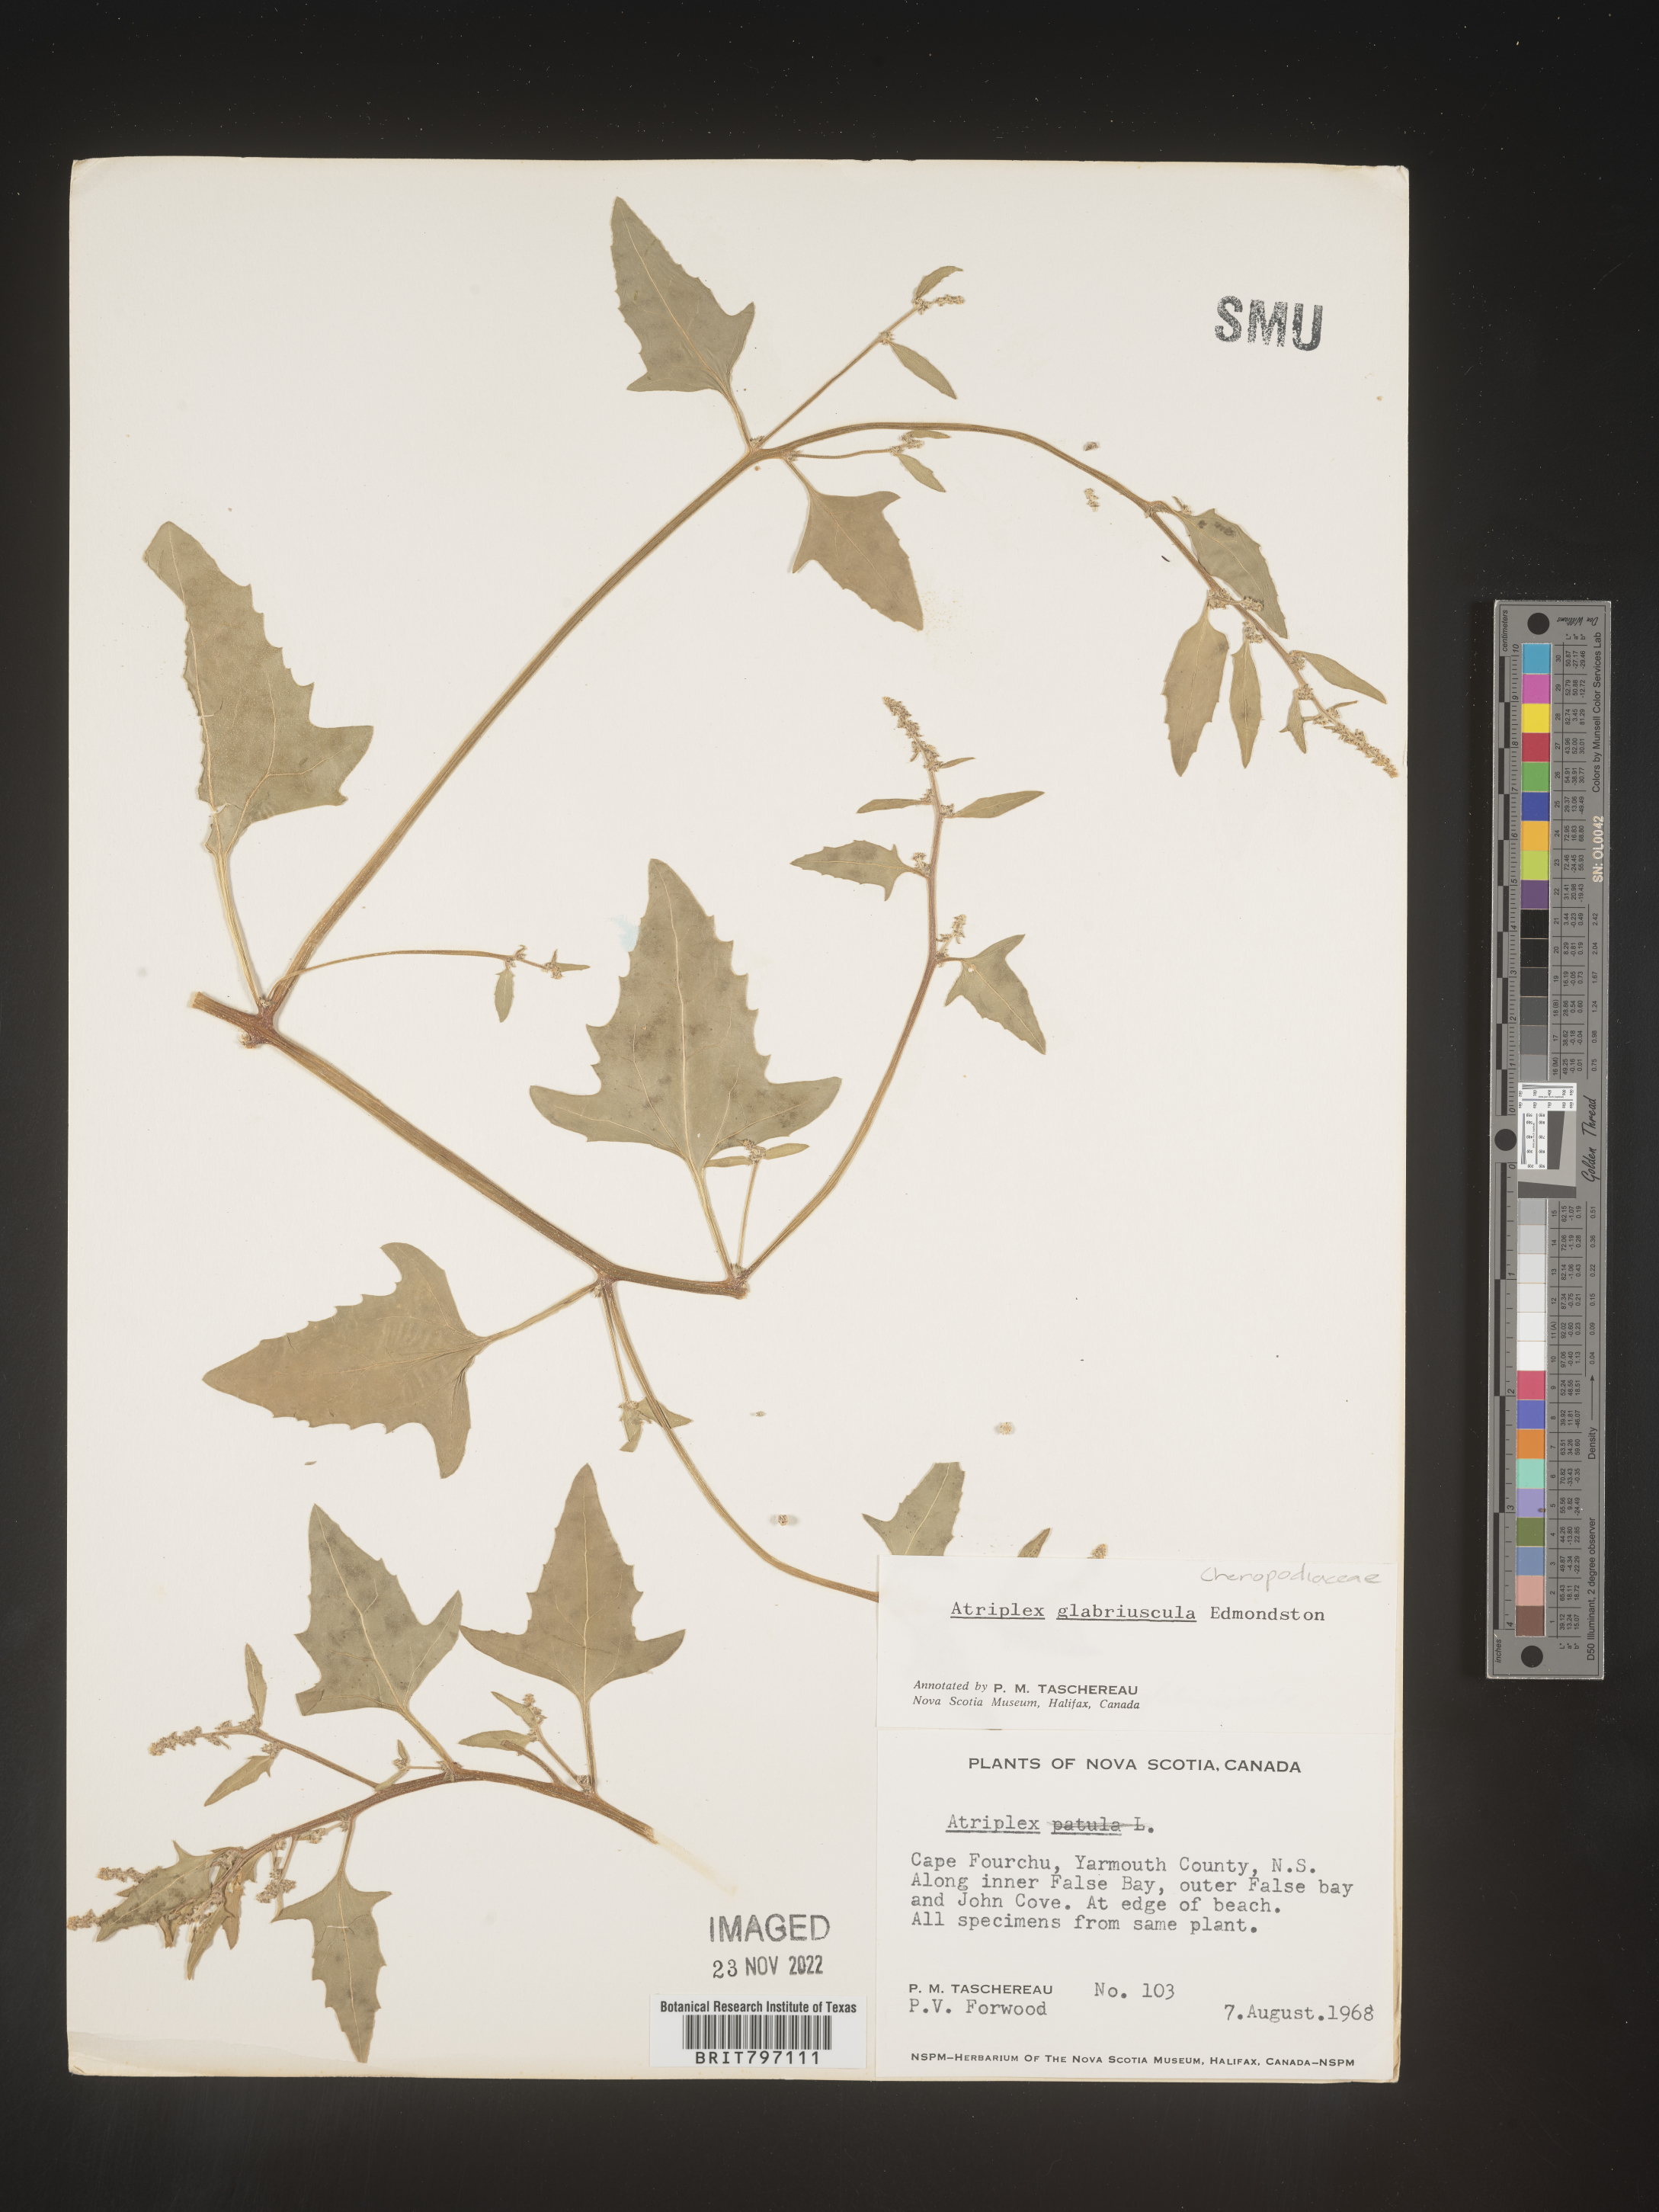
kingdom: Plantae
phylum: Tracheophyta
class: Magnoliopsida
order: Caryophyllales
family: Amaranthaceae
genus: Atriplex
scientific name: Atriplex
